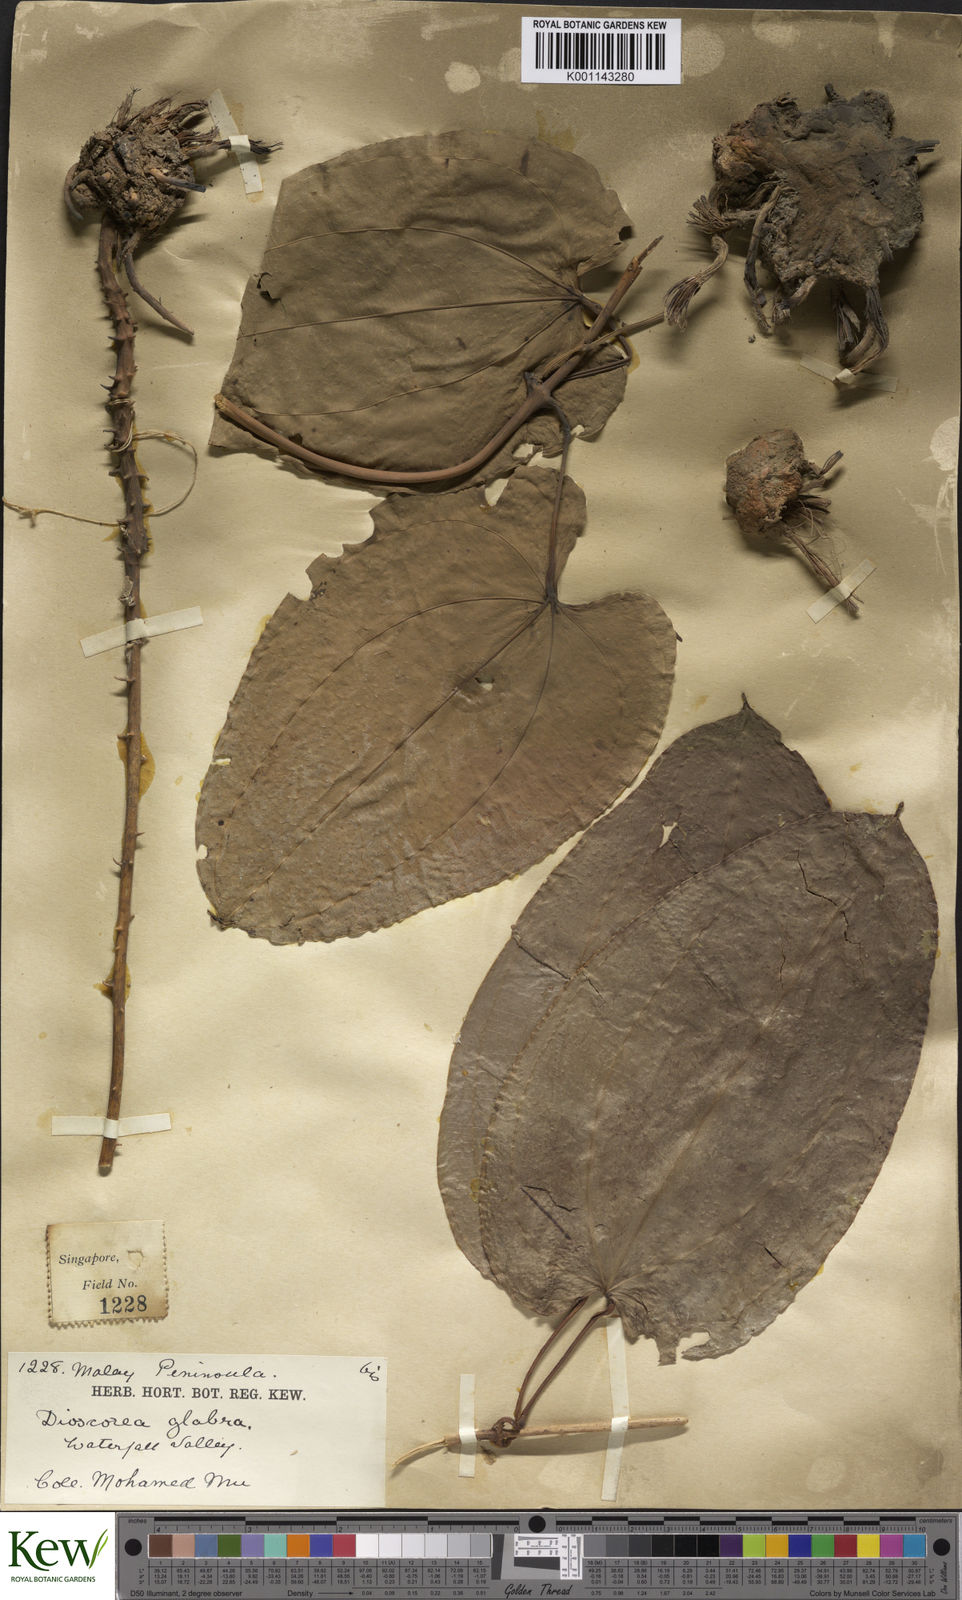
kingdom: Plantae
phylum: Tracheophyta
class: Liliopsida
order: Dioscoreales
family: Dioscoreaceae
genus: Dioscorea
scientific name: Dioscorea glabra
